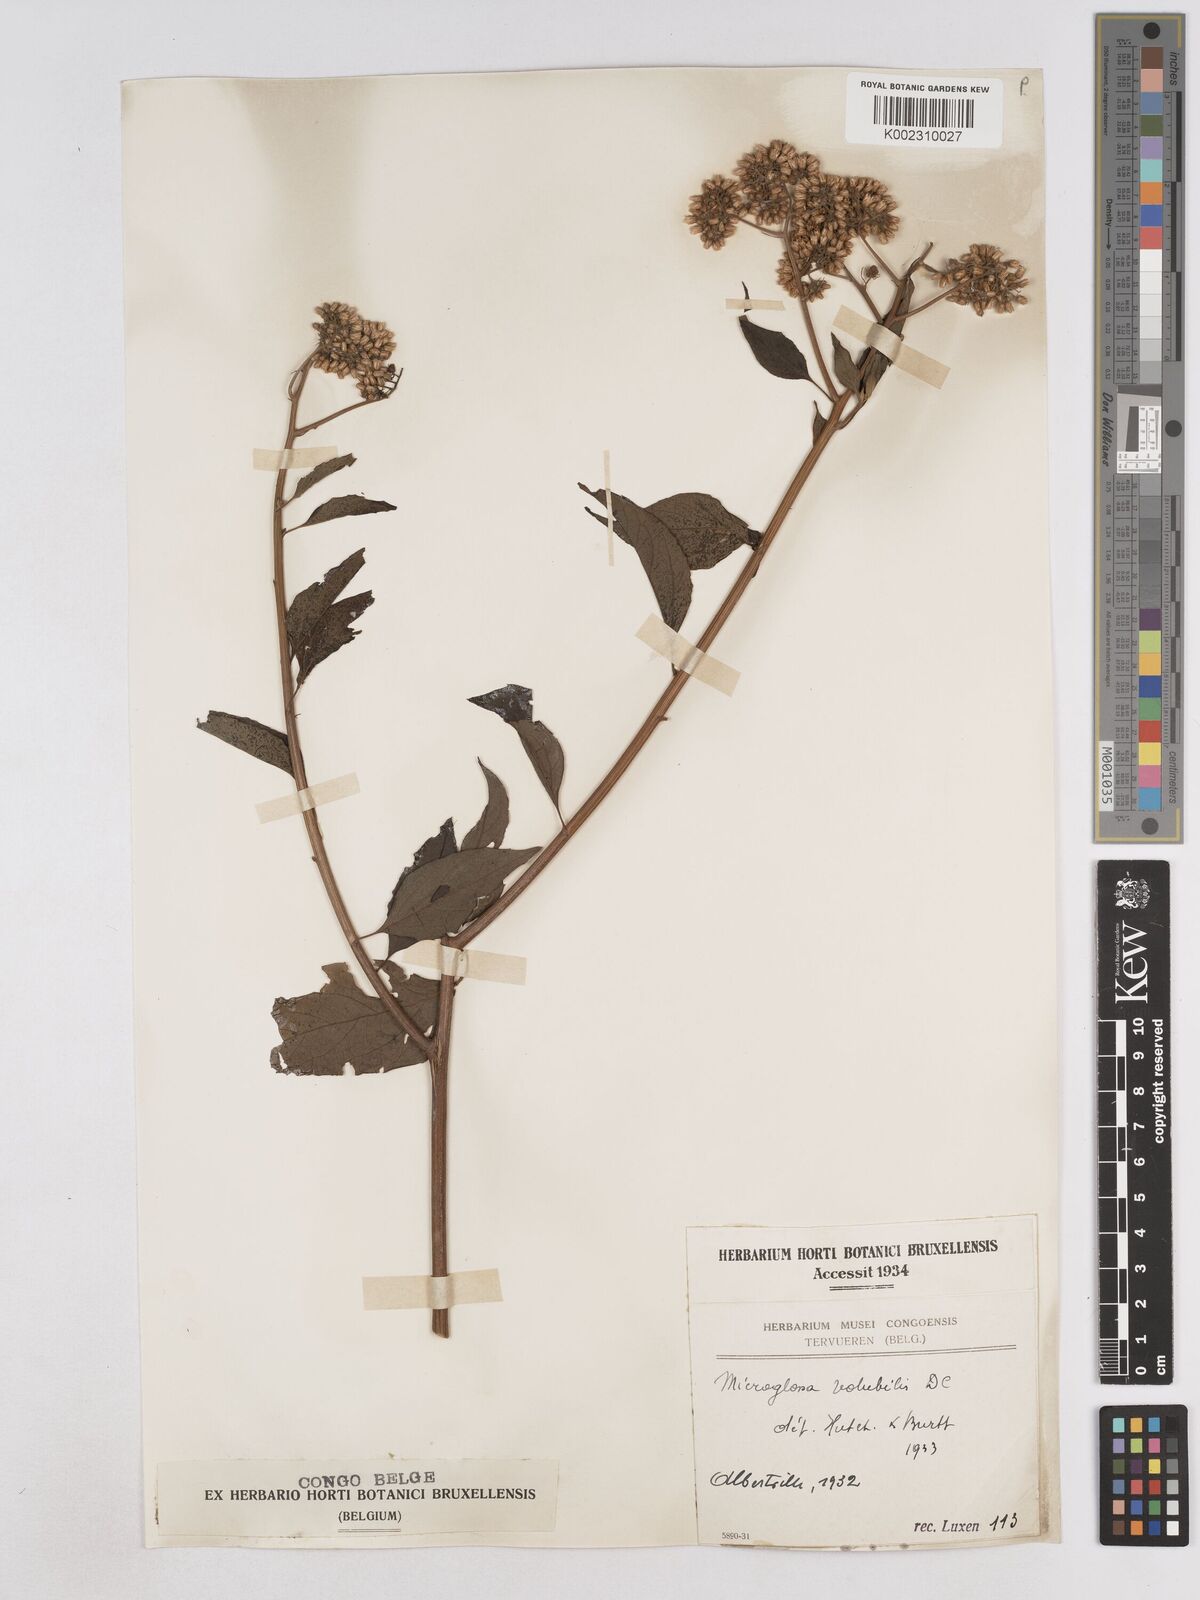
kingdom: Plantae
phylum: Tracheophyta
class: Magnoliopsida
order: Asterales
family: Asteraceae
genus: Microglossa
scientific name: Microglossa pyrifolia
